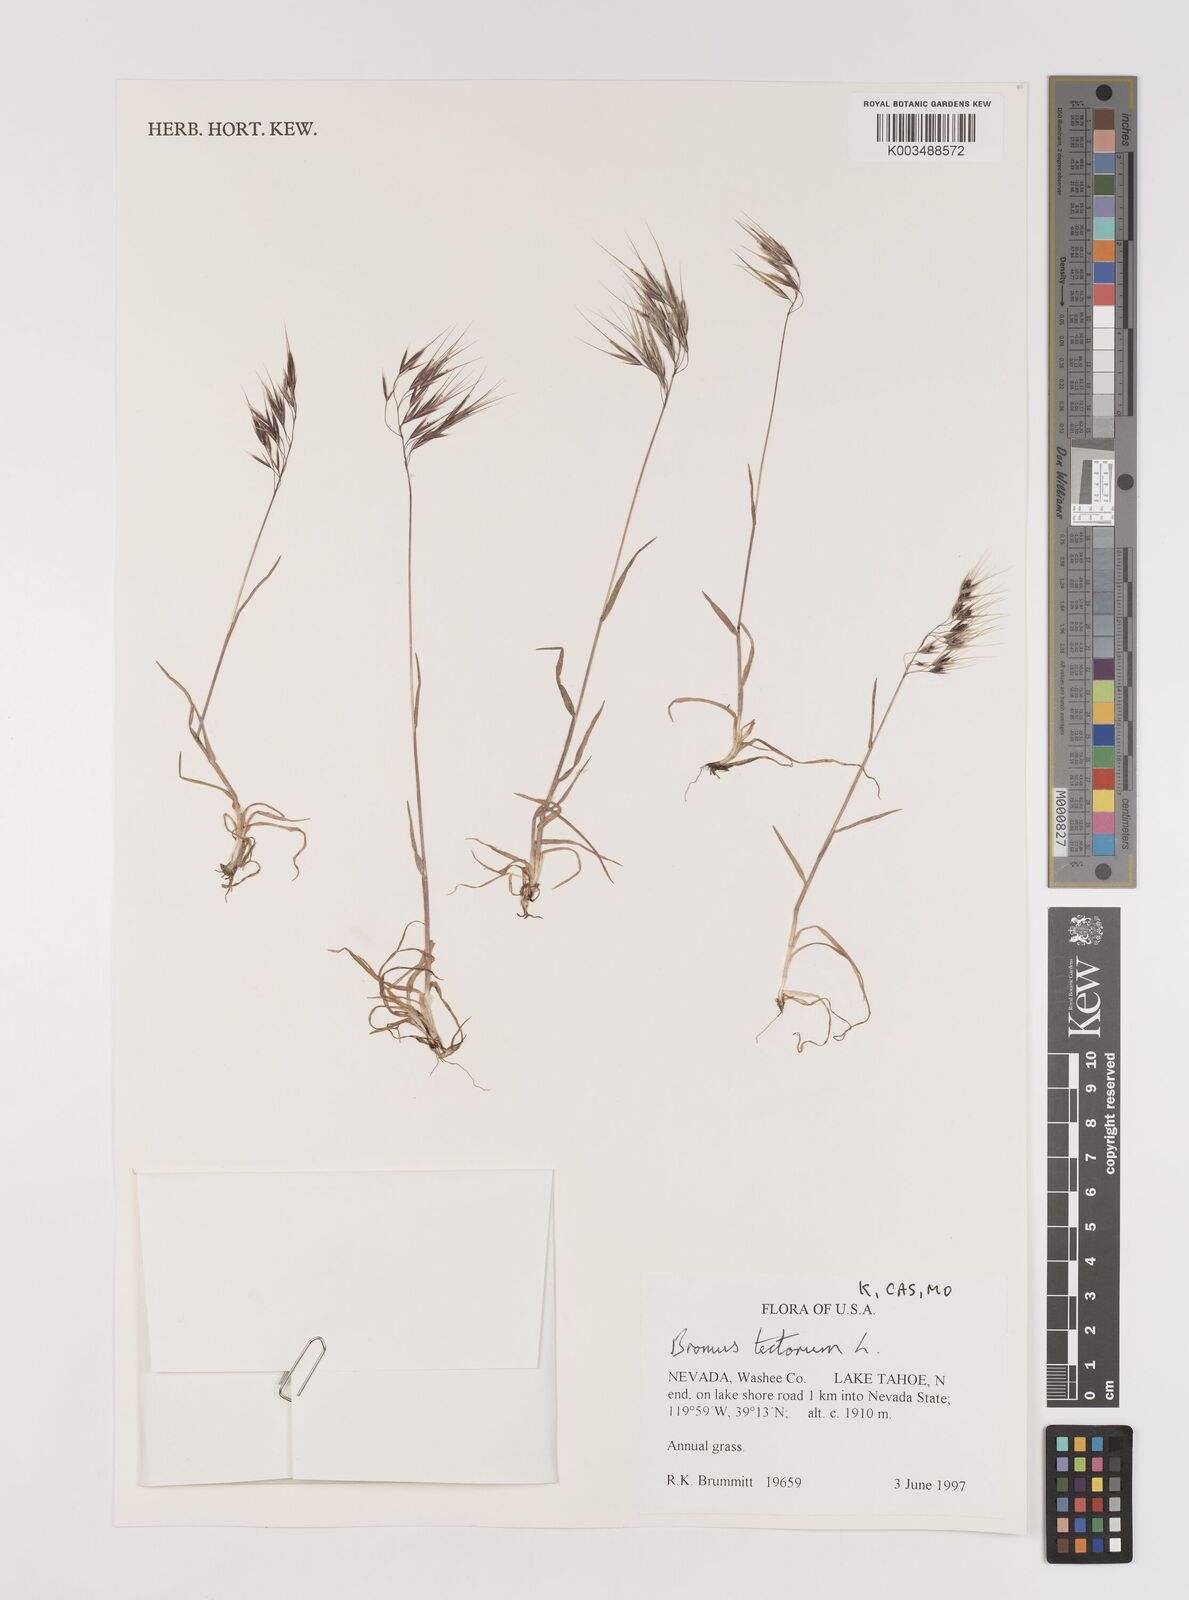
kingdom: Plantae
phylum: Tracheophyta
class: Liliopsida
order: Poales
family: Poaceae
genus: Bromus
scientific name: Bromus tectorum
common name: Cheatgrass
